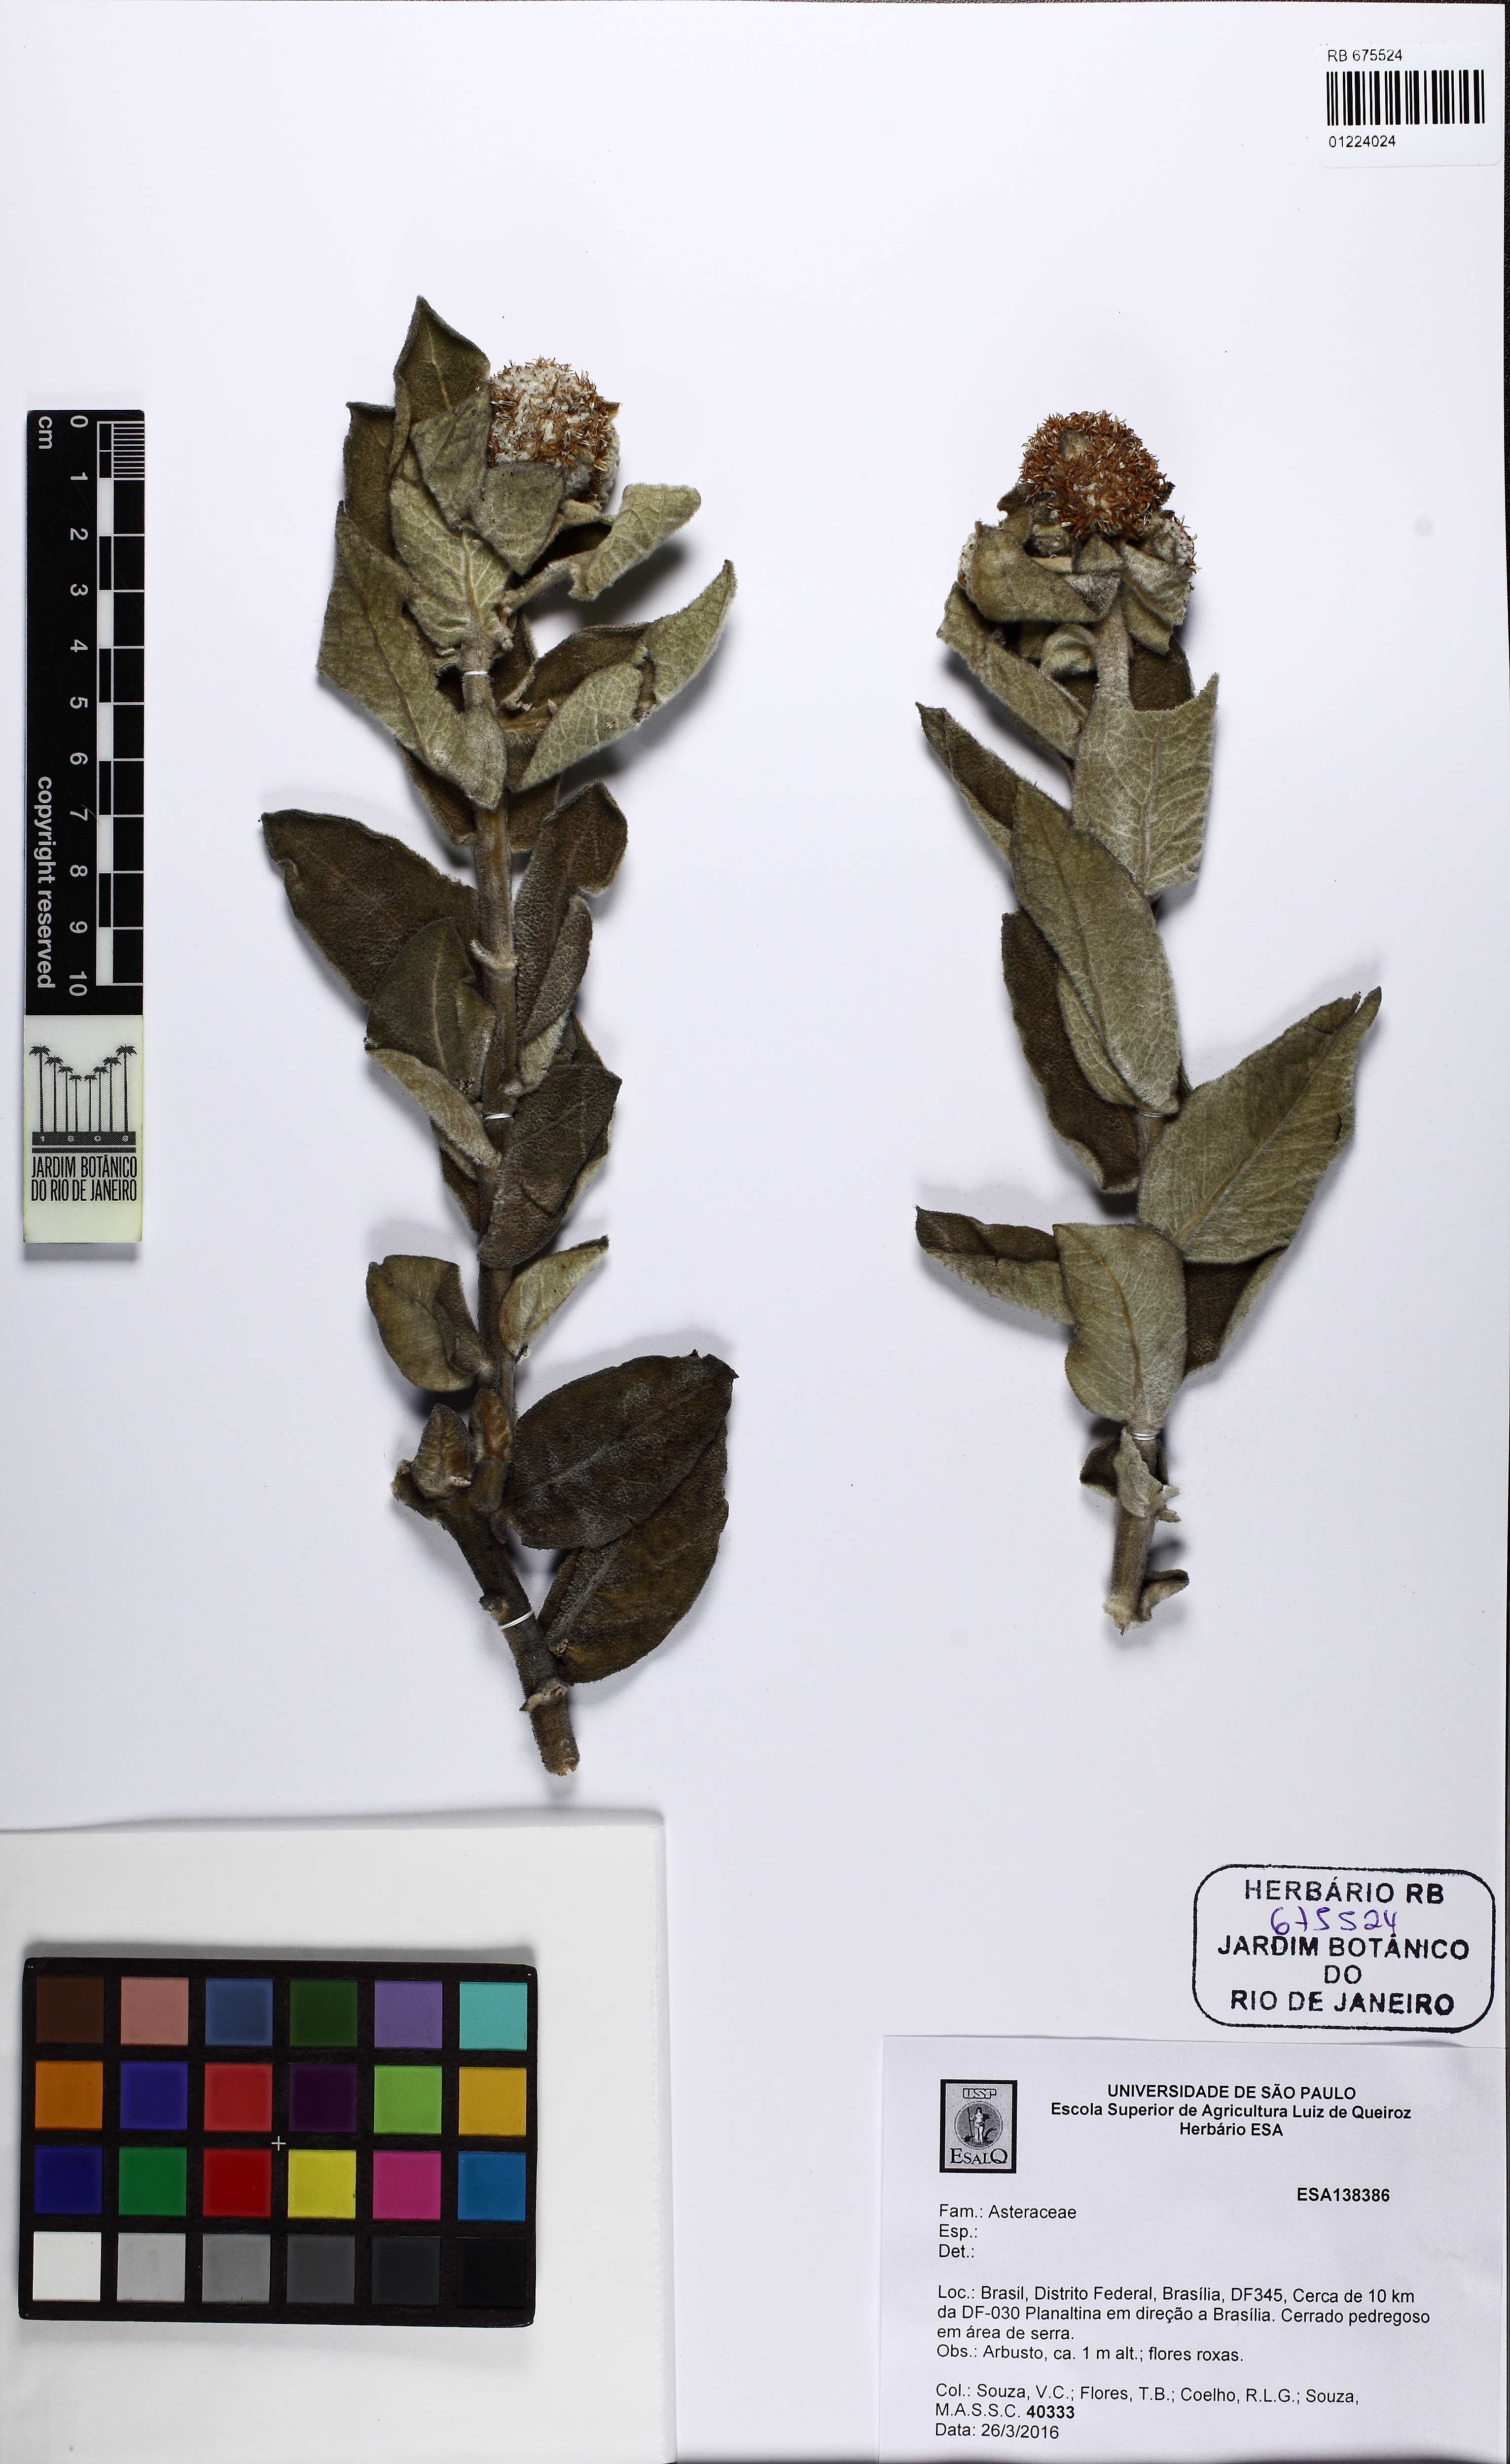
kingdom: Plantae
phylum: Tracheophyta
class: Magnoliopsida
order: Asterales
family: Asteraceae
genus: Eremanthus
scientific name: Eremanthus mollis
